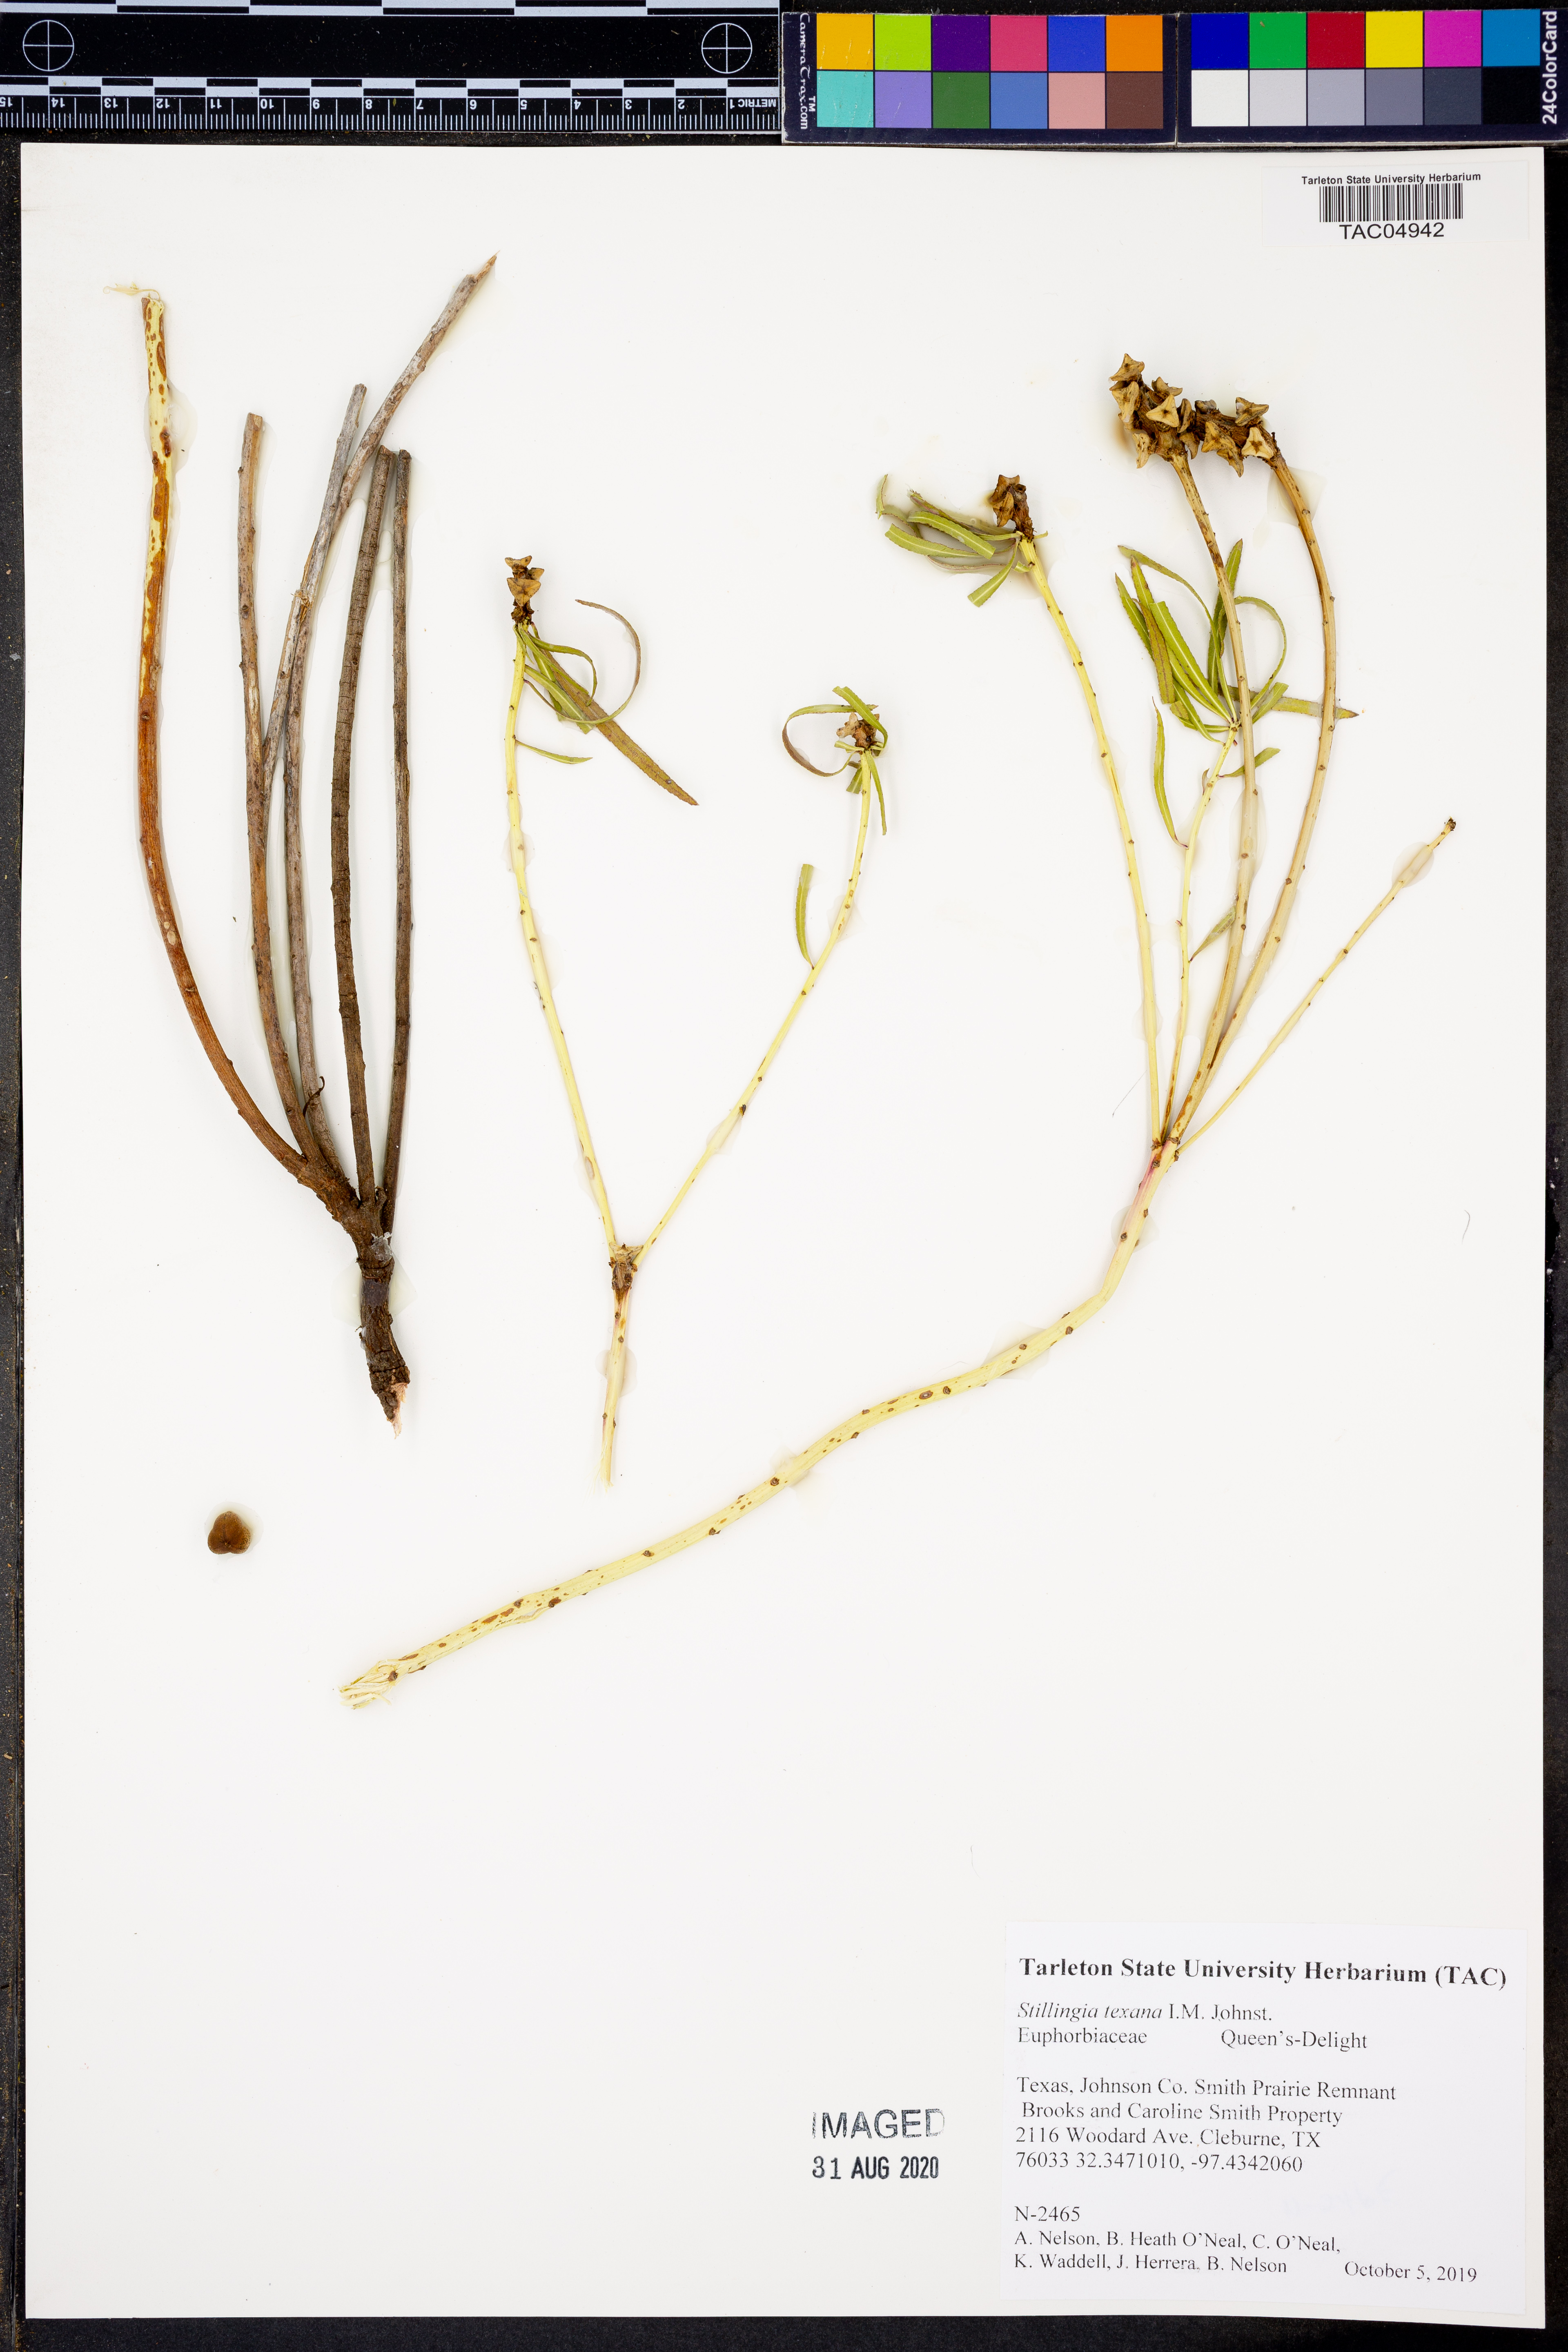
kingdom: Plantae
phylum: Tracheophyta
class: Magnoliopsida
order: Malpighiales
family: Euphorbiaceae
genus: Stillingia
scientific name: Stillingia texana
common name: Texas stillingia
